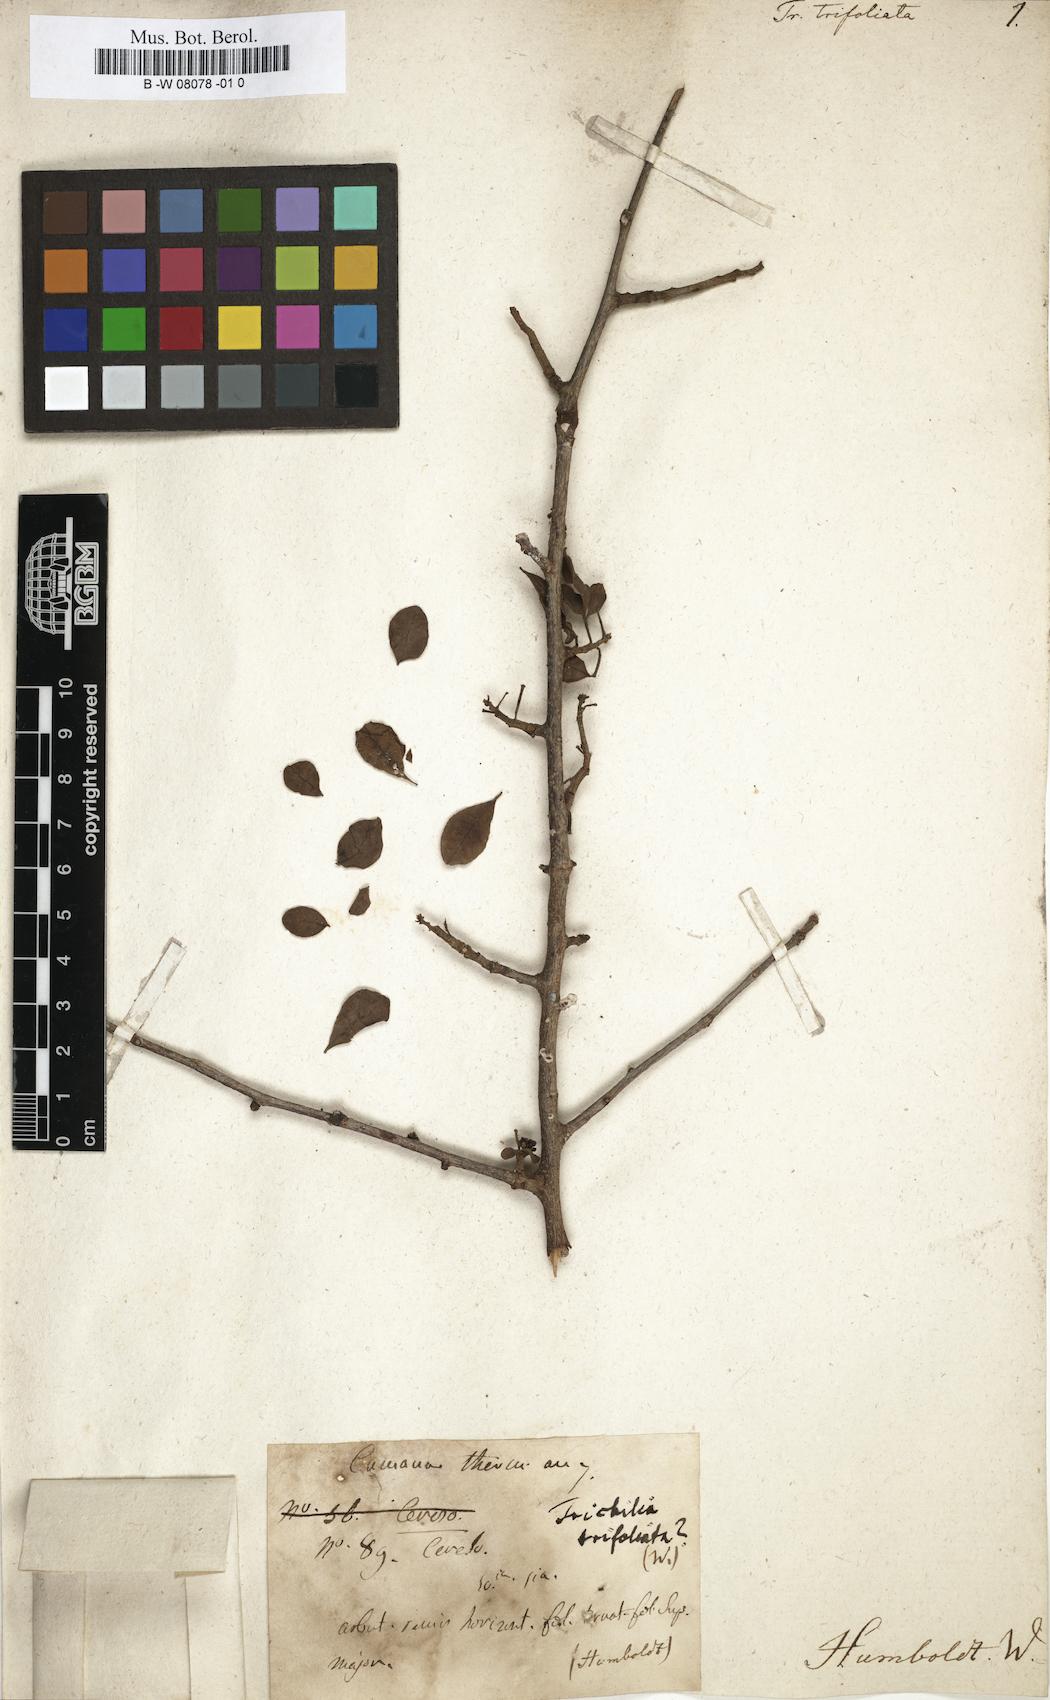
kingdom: Plantae
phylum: Tracheophyta
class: Magnoliopsida
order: Sapindales
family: Meliaceae
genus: Trichilia
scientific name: Trichilia trifolia
